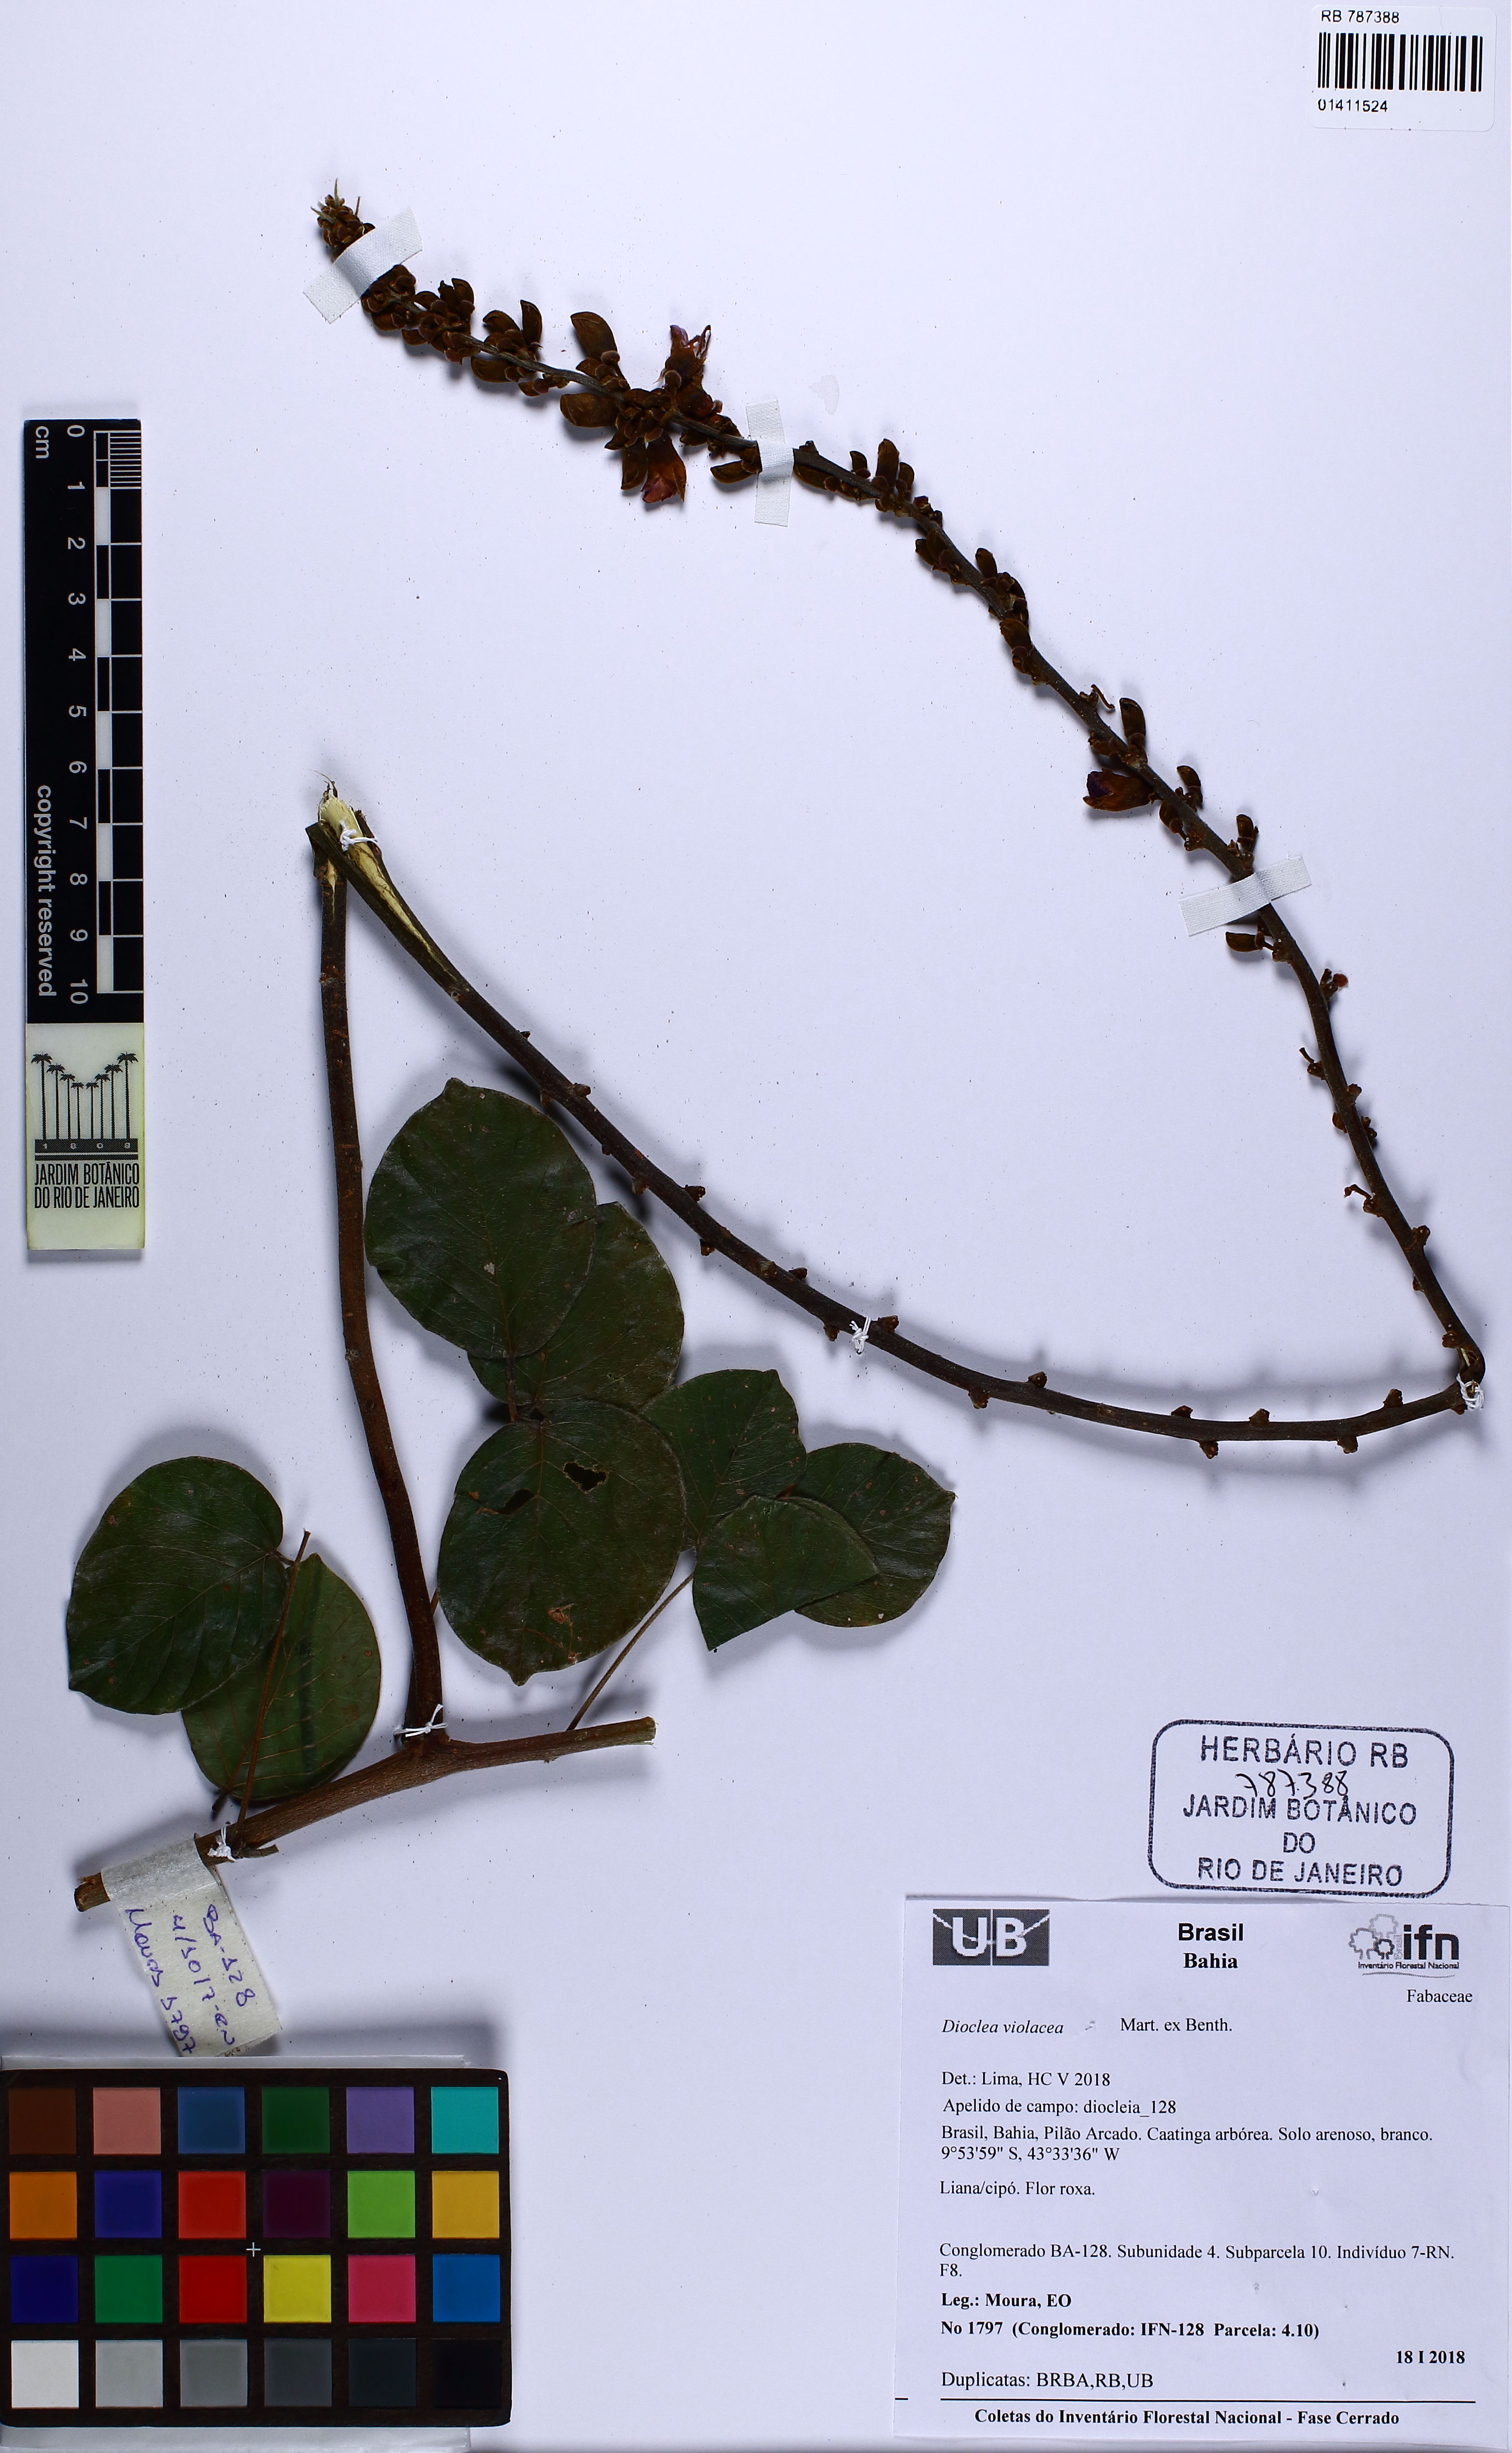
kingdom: Plantae
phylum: Tracheophyta
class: Magnoliopsida
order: Fabales
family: Fabaceae
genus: Macropsychanthus
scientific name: Macropsychanthus violaceus
